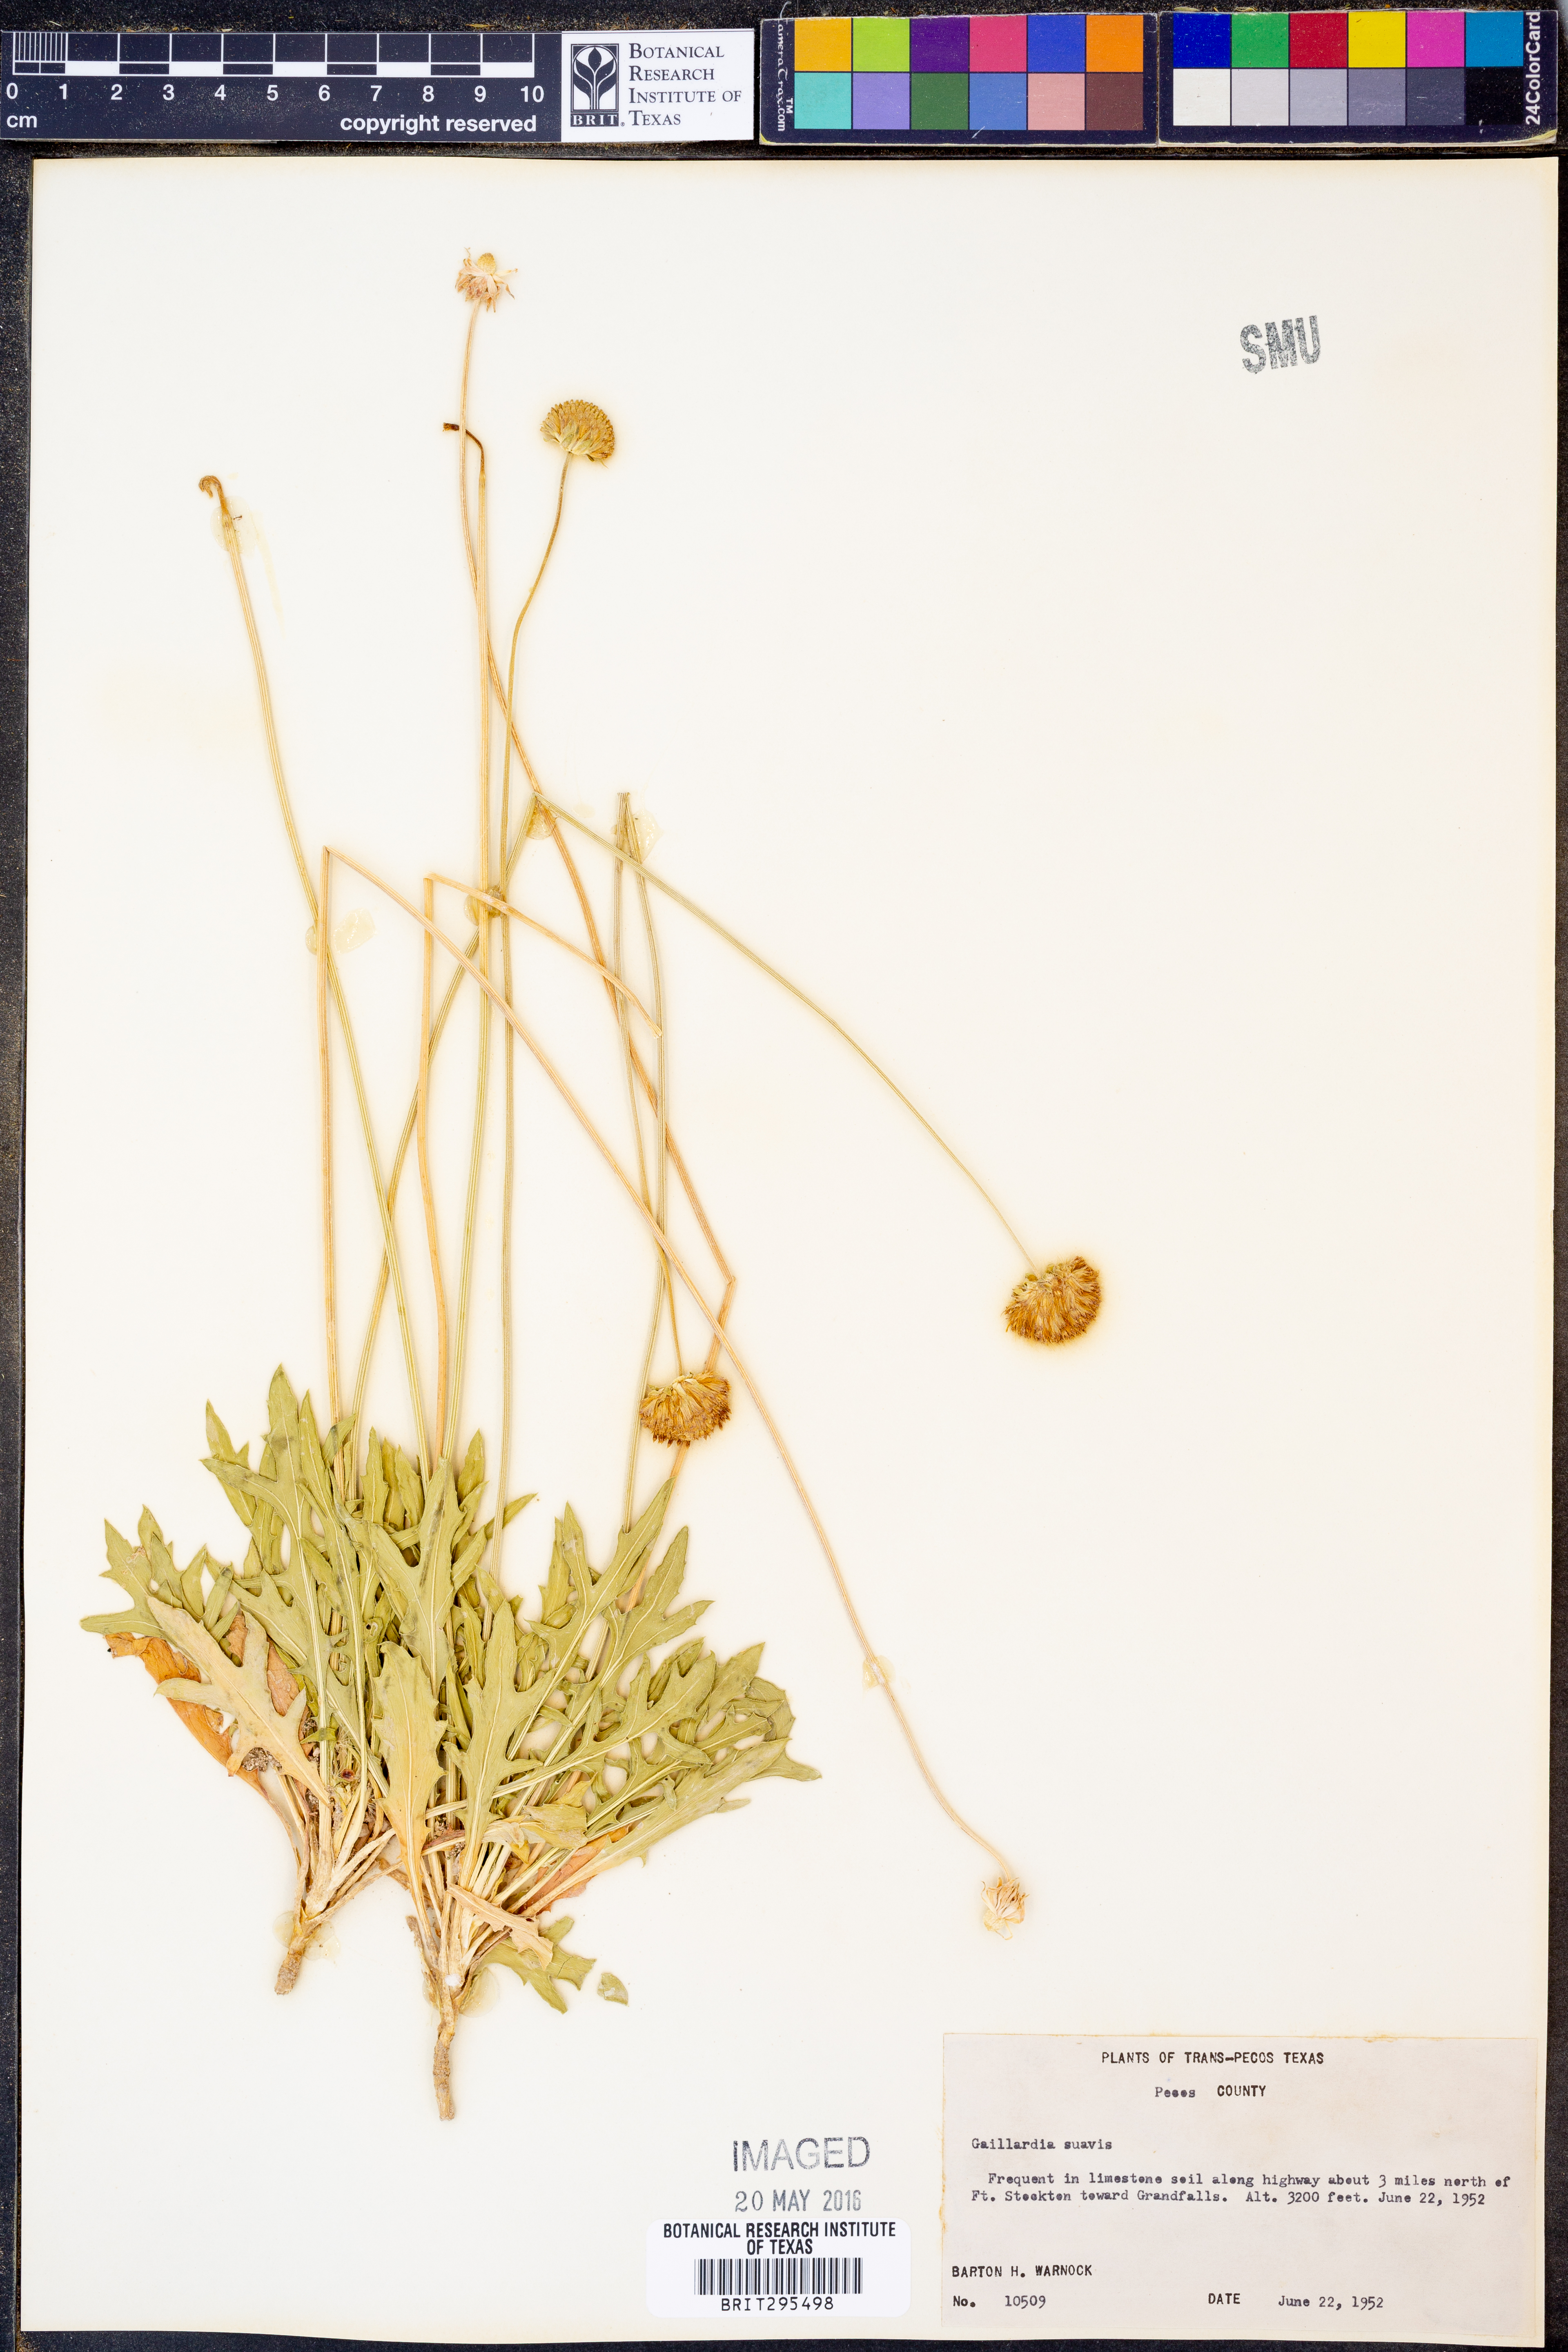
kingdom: Plantae
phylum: Tracheophyta
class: Magnoliopsida
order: Asterales
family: Asteraceae
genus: Gaillardia
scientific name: Gaillardia suavis
